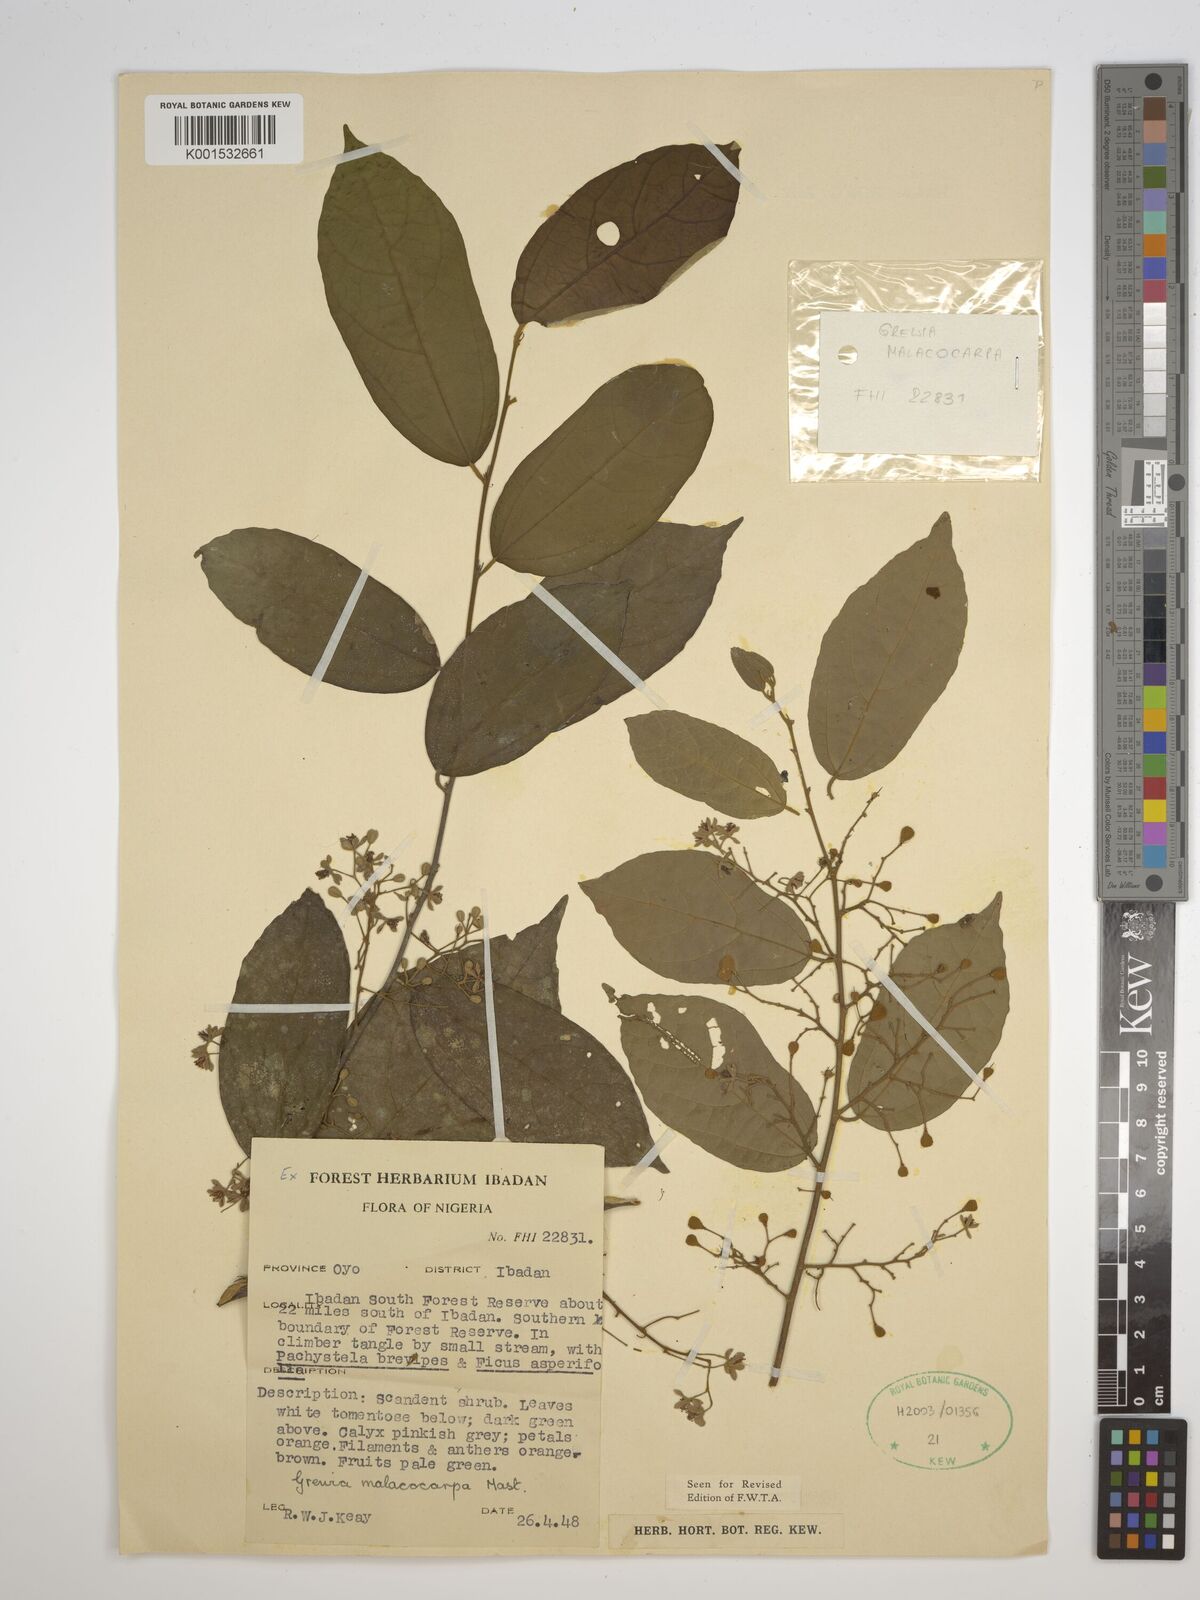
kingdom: Plantae
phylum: Tracheophyta
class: Magnoliopsida
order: Malvales
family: Malvaceae
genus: Microcos
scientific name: Microcos malacocarpa
